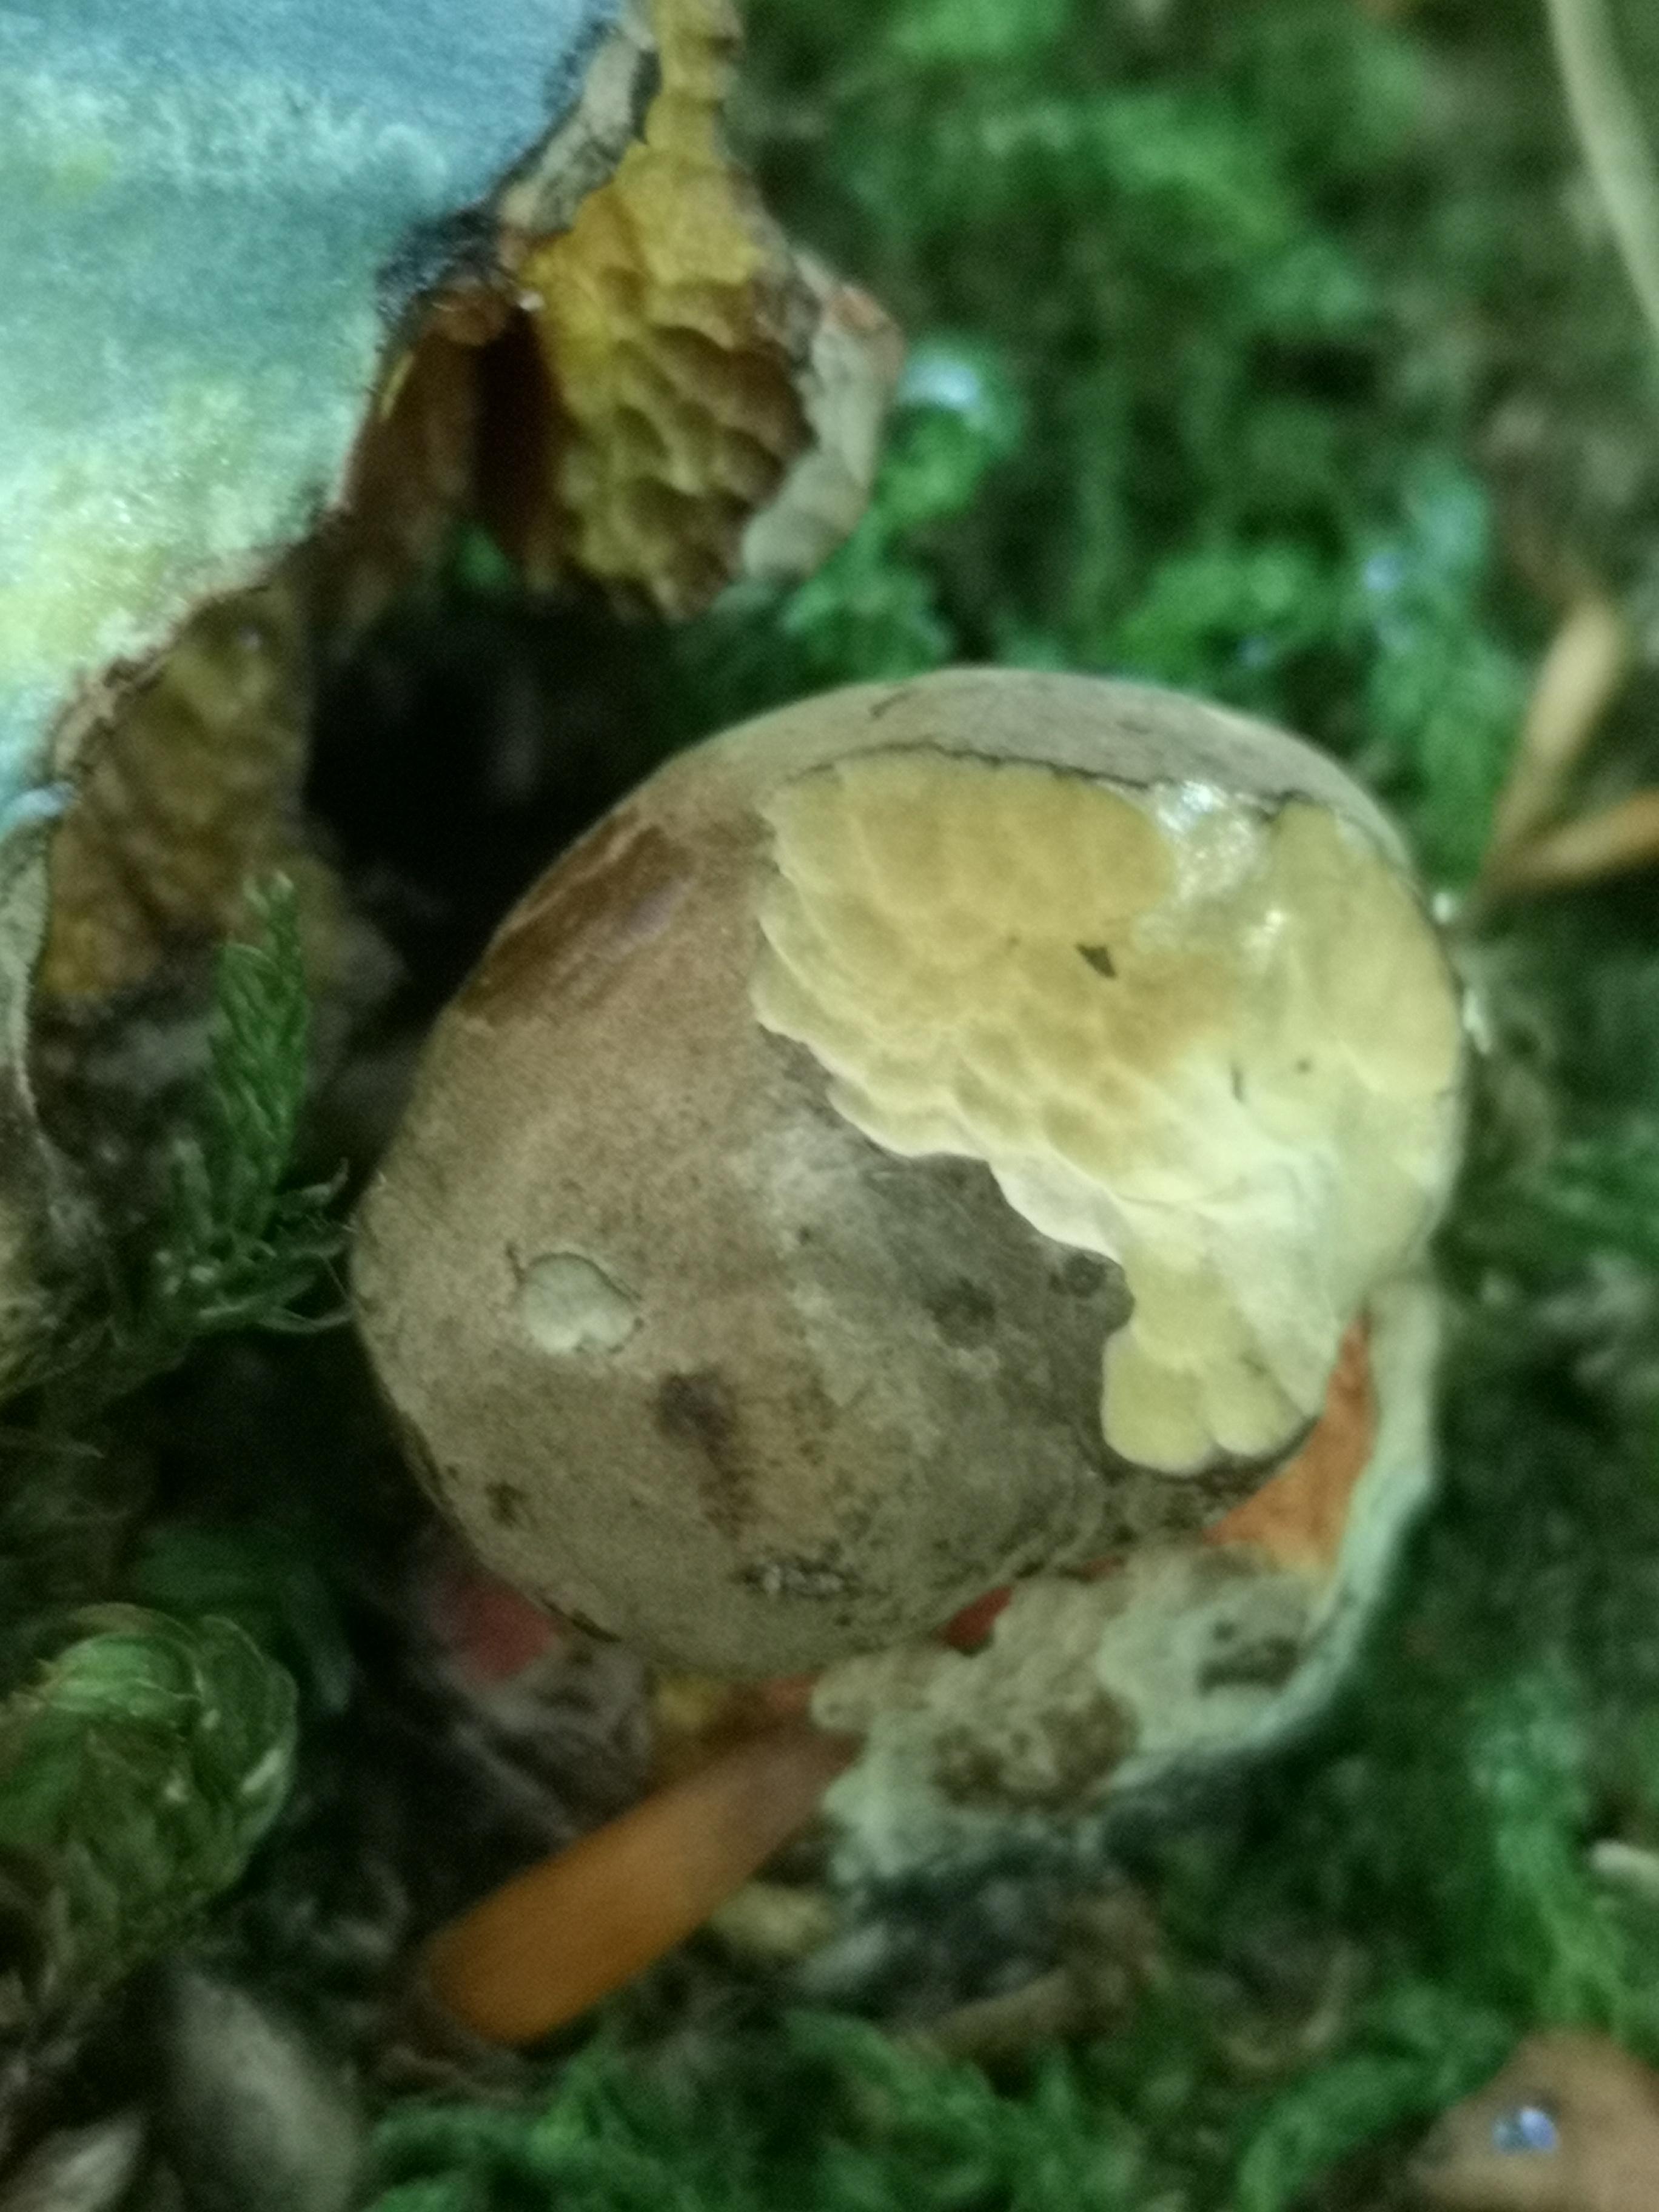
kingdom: Fungi
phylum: Basidiomycota
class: Agaricomycetes
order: Boletales
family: Boletaceae
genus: Neoboletus
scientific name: Neoboletus erythropus
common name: punktstokket indigorørhat
